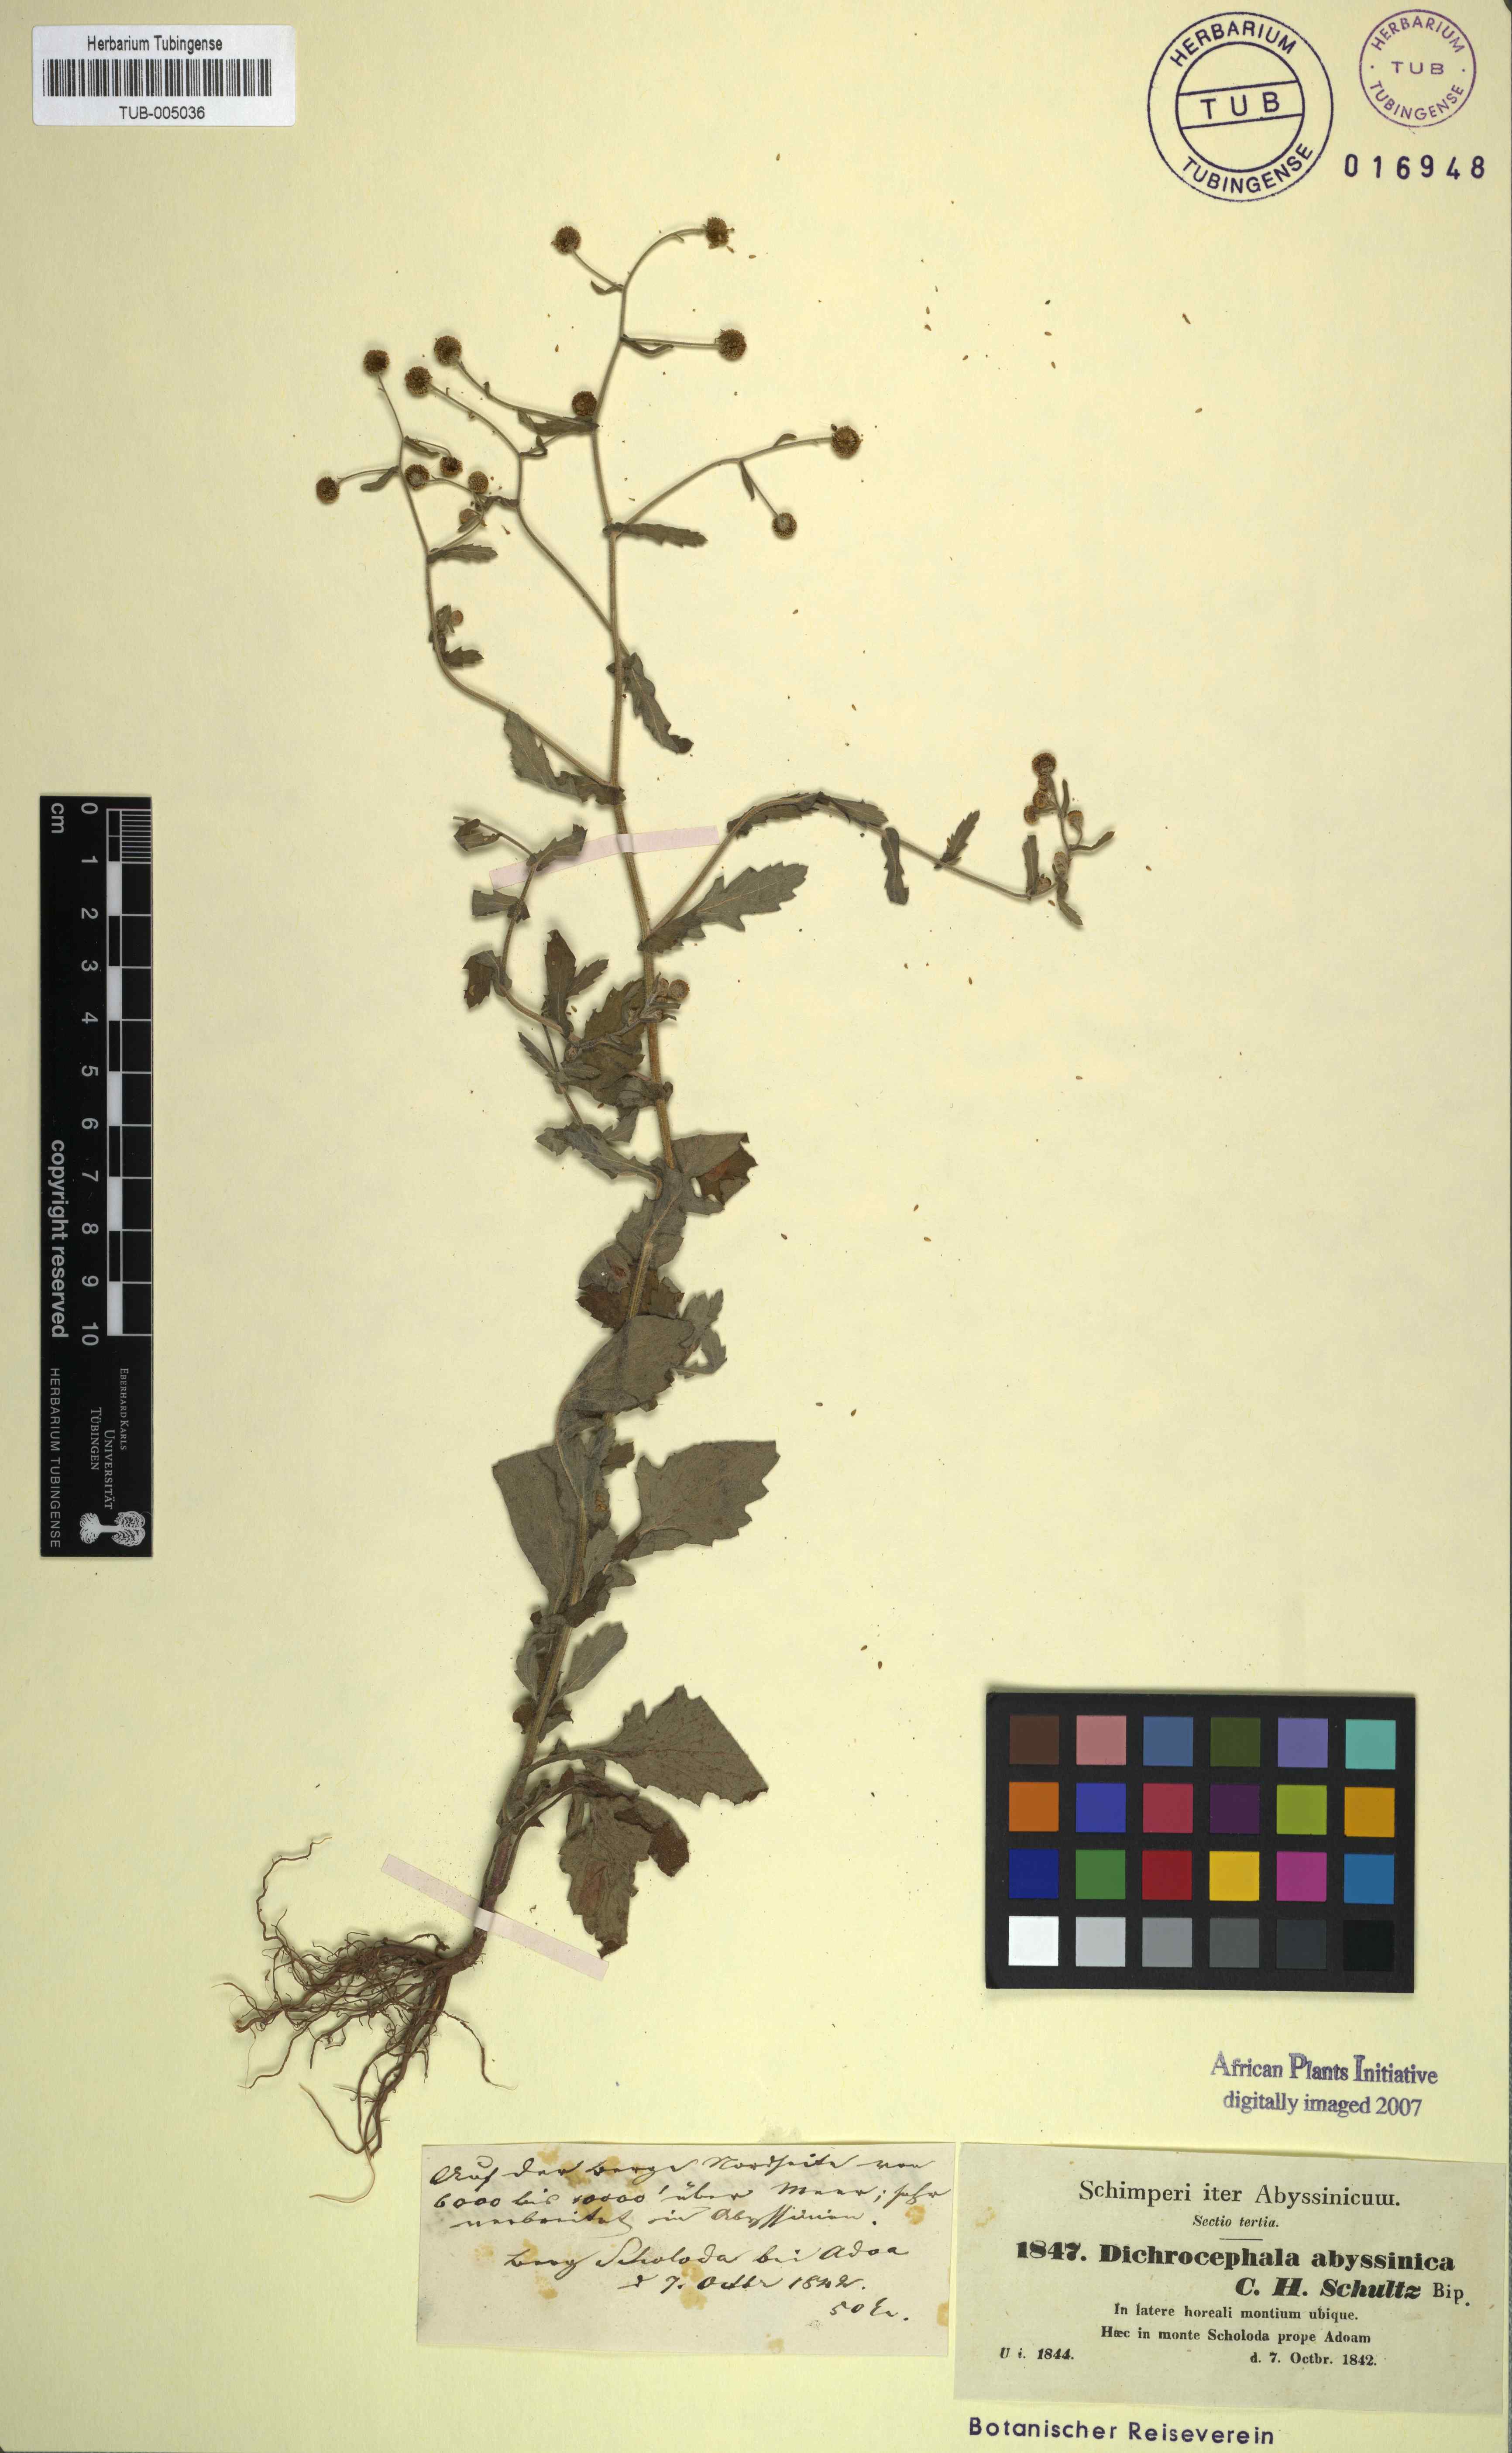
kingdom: Plantae
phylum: Tracheophyta
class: Magnoliopsida
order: Asterales
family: Asteraceae
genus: Dichrocephala
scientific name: Dichrocephala integrifolia
